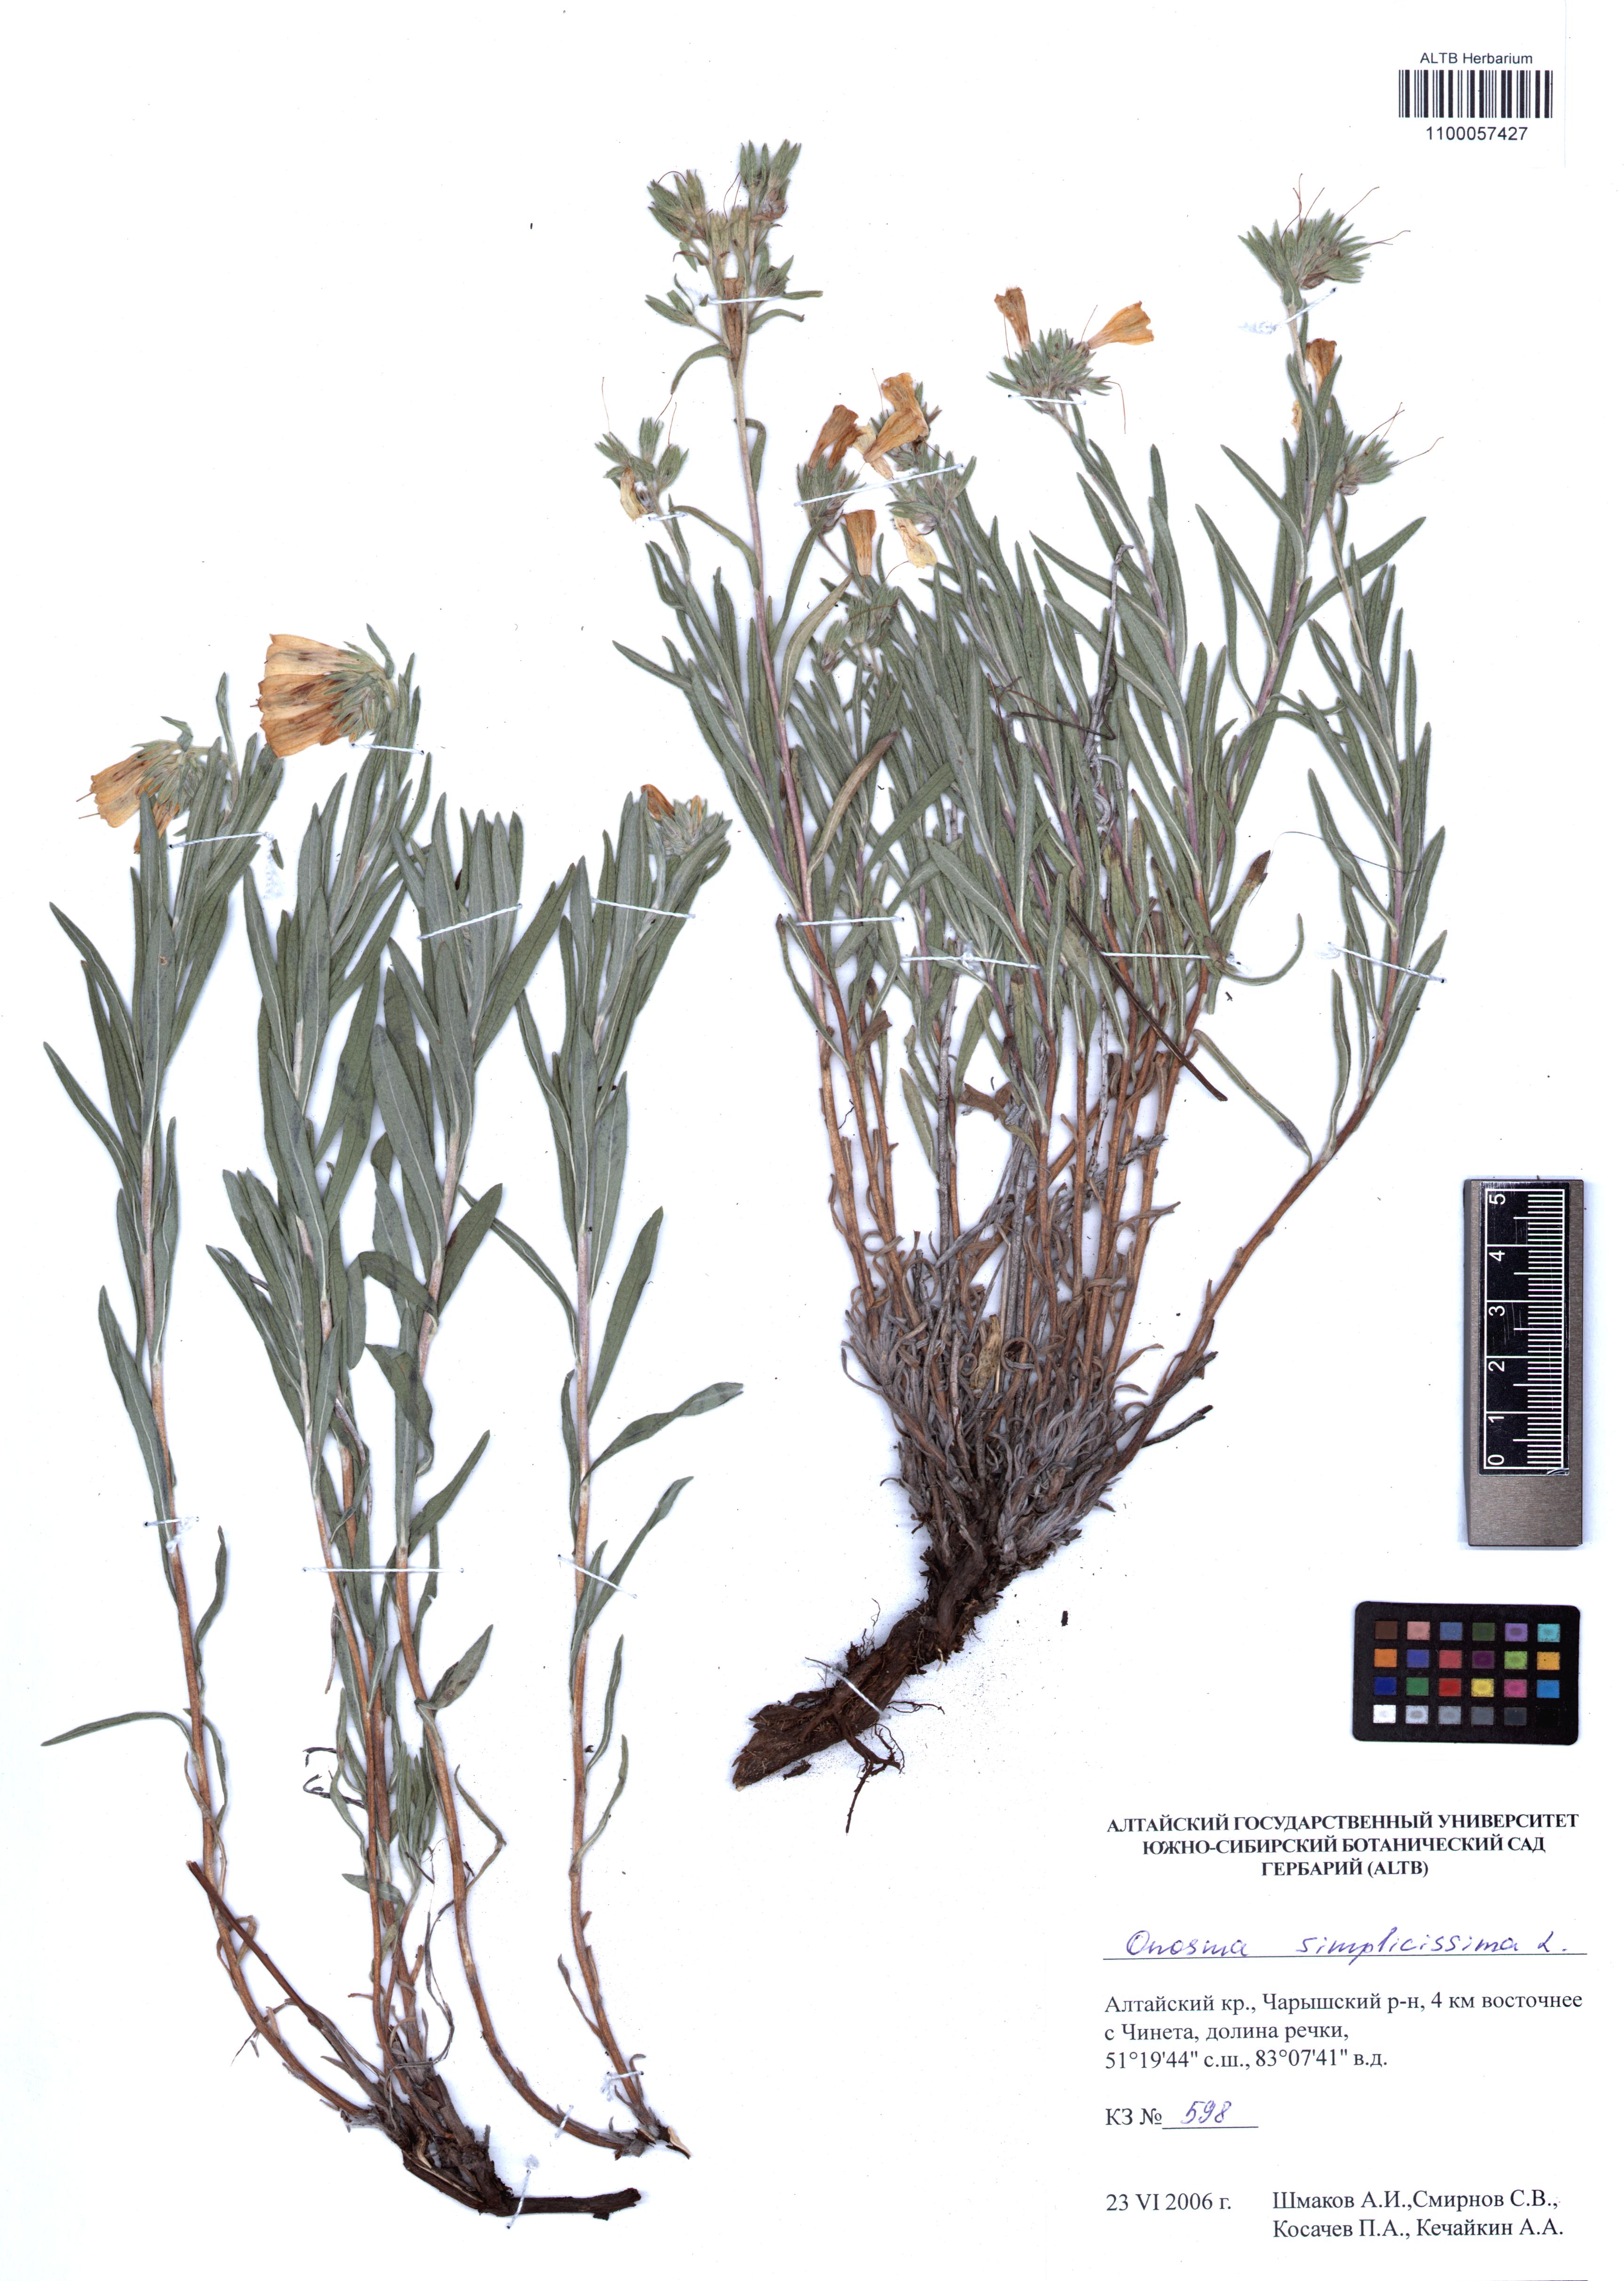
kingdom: Plantae
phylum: Tracheophyta
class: Magnoliopsida
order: Boraginales
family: Boraginaceae
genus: Onosma
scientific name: Onosma simplicissima
